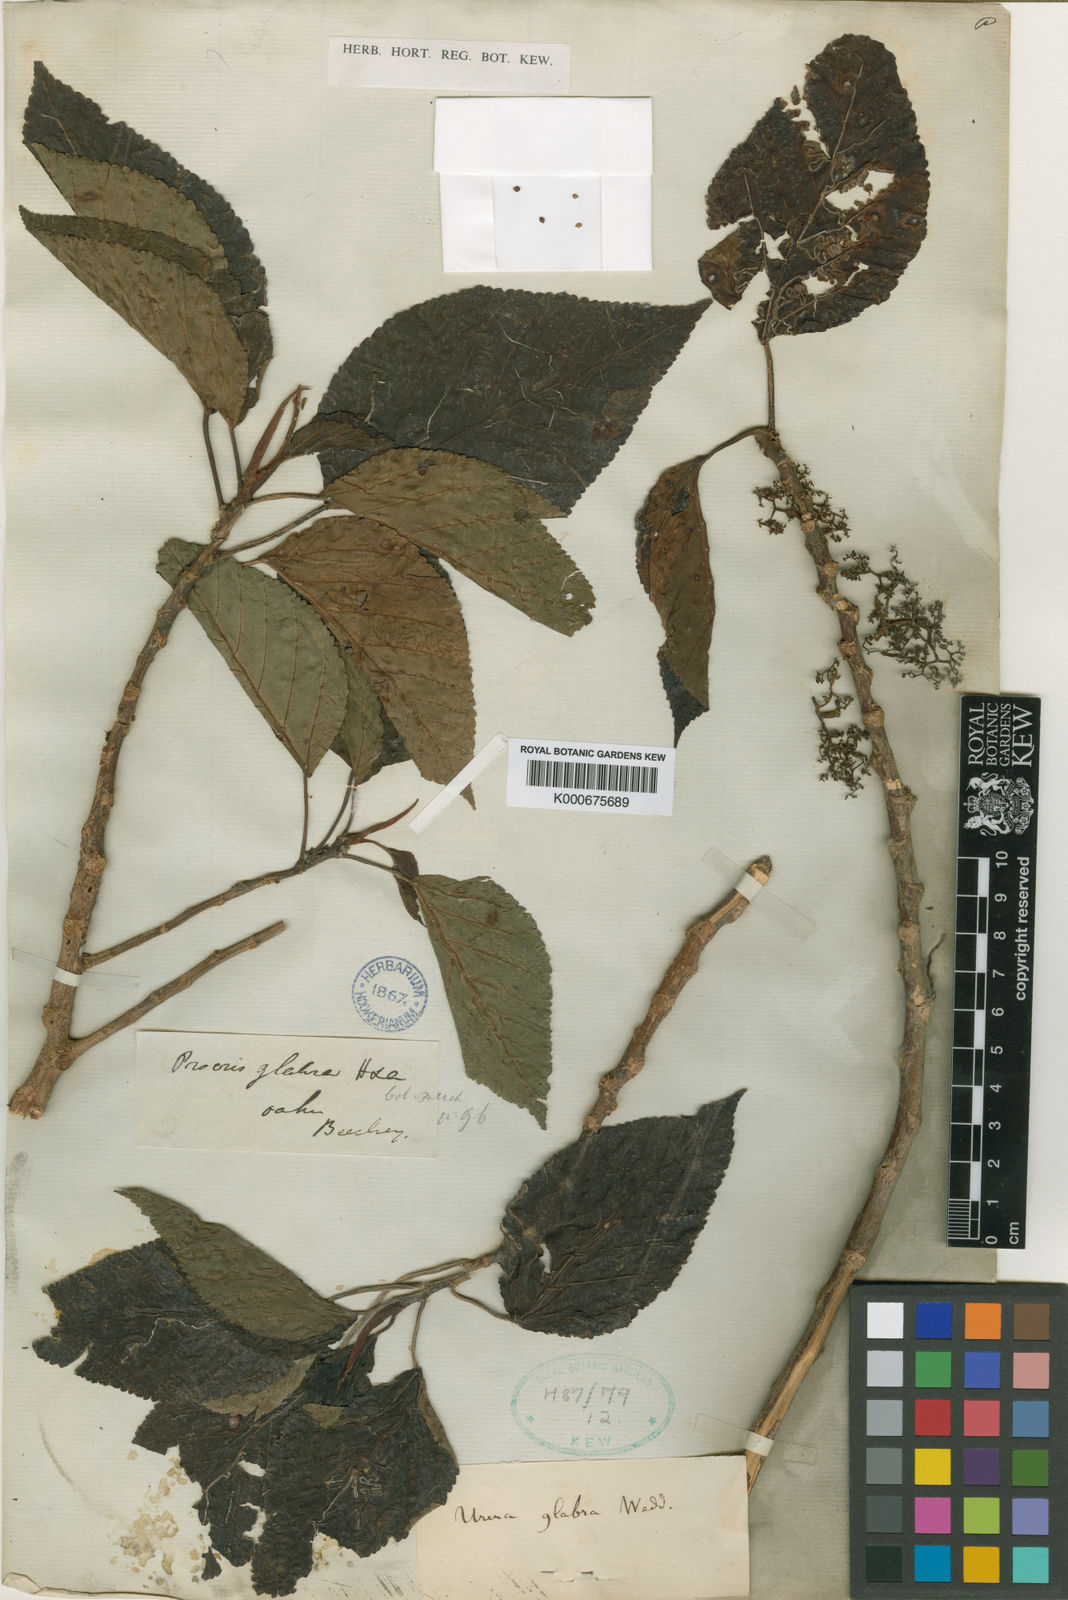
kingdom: Plantae
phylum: Tracheophyta
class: Magnoliopsida
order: Rosales
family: Urticaceae
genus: Touchardia
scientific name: Touchardia oahuensis
